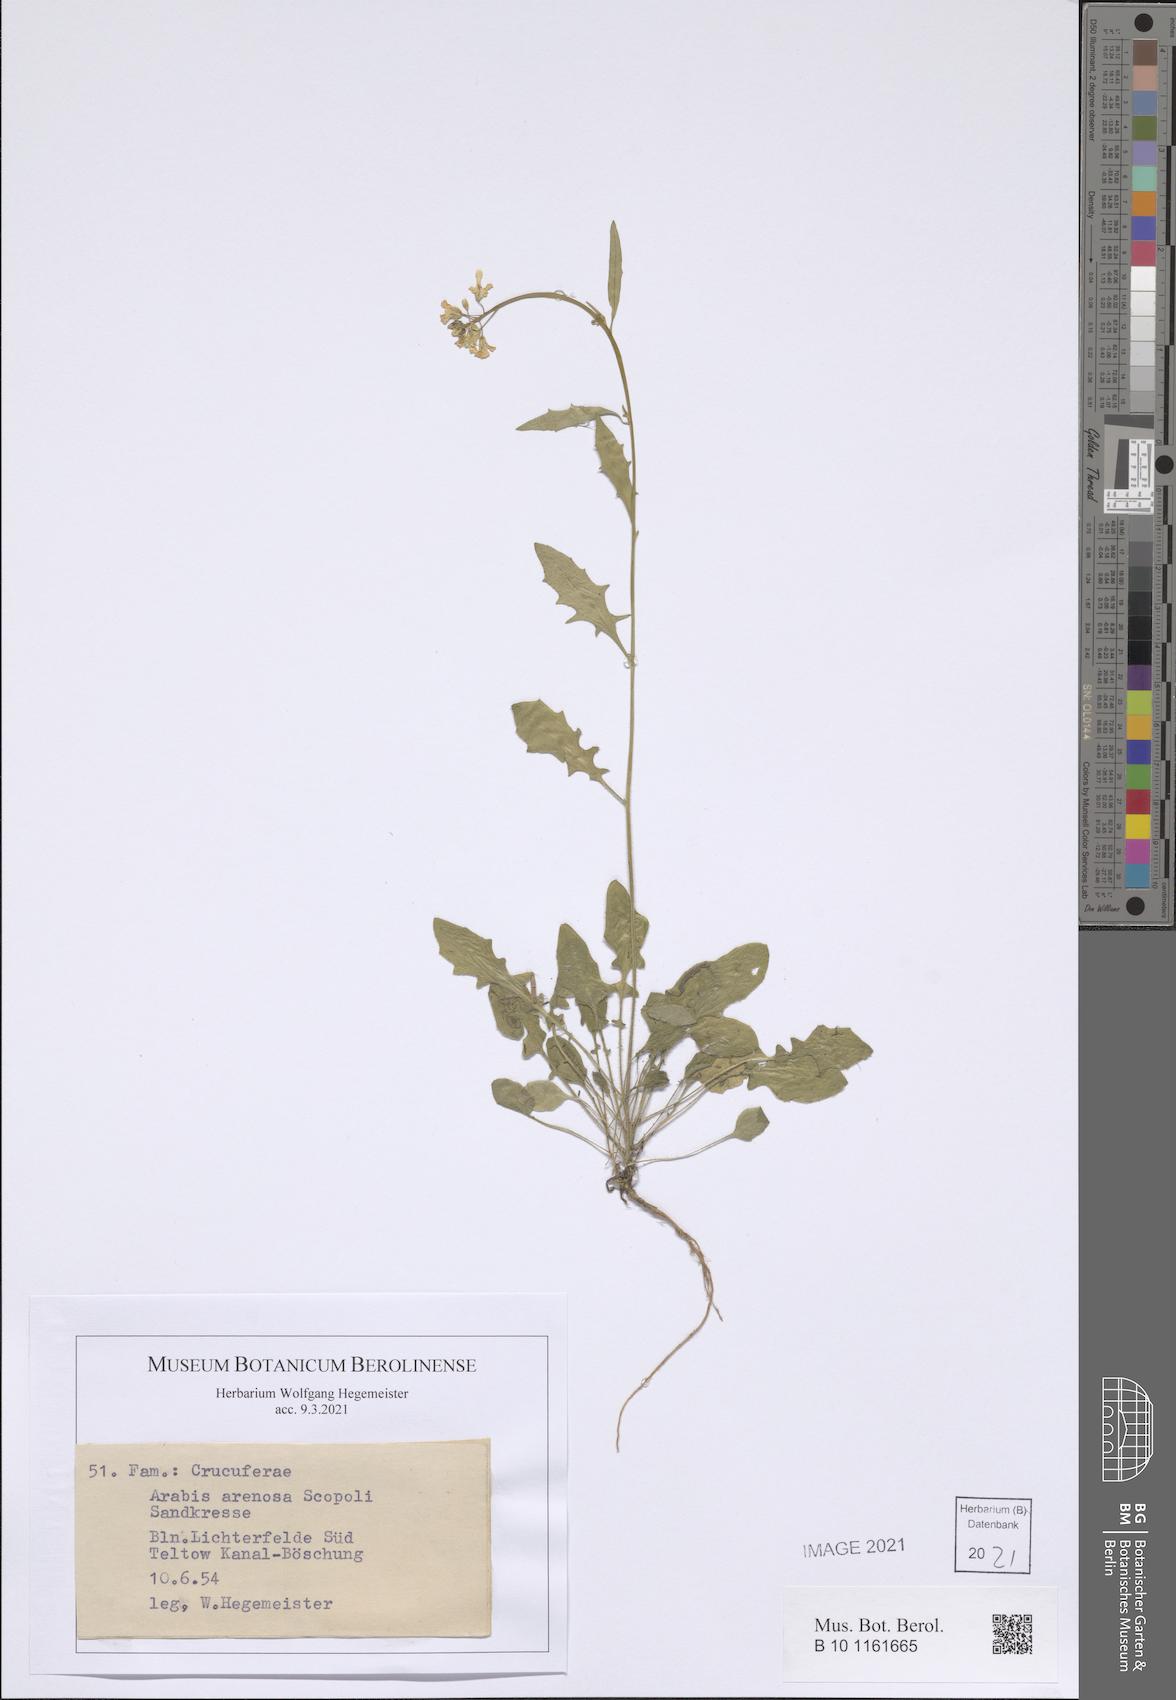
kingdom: Plantae
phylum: Tracheophyta
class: Magnoliopsida
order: Brassicales
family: Brassicaceae
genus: Arabidopsis
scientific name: Arabidopsis arenosa
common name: Sand rock-cress
